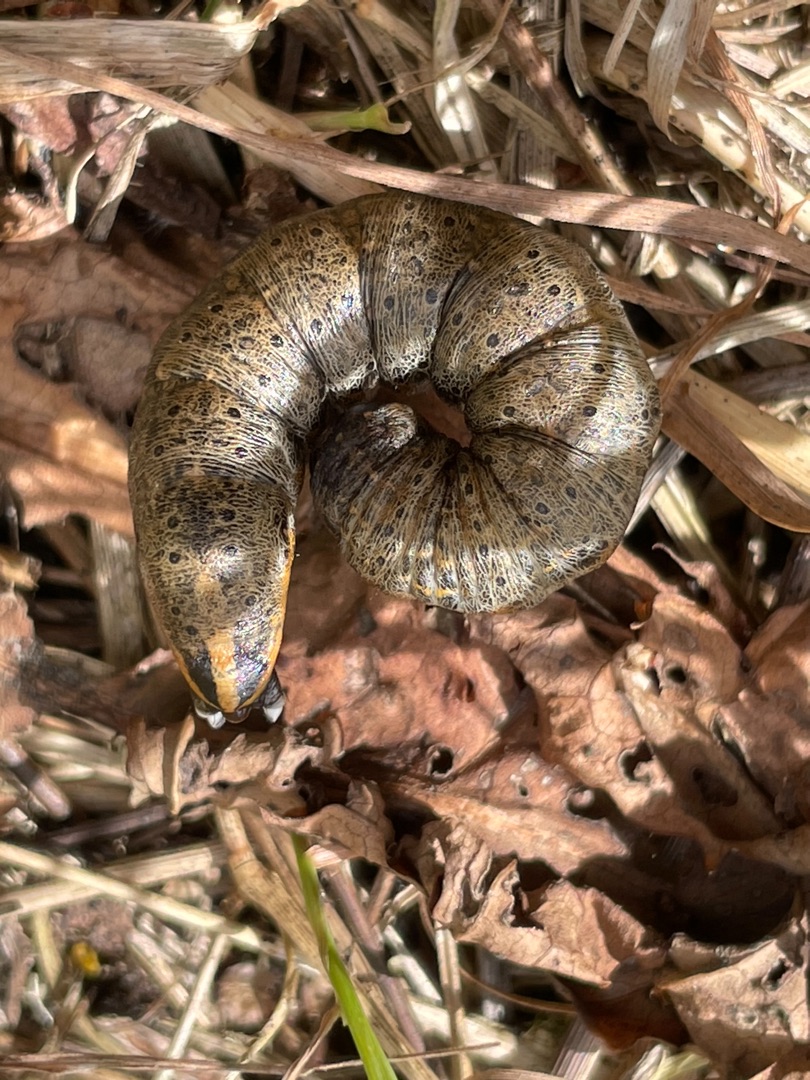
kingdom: Animalia
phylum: Arthropoda
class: Insecta
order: Lepidoptera
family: Noctuidae
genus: Cucullia
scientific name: Cucullia umbratica
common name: Grå hætteugle
